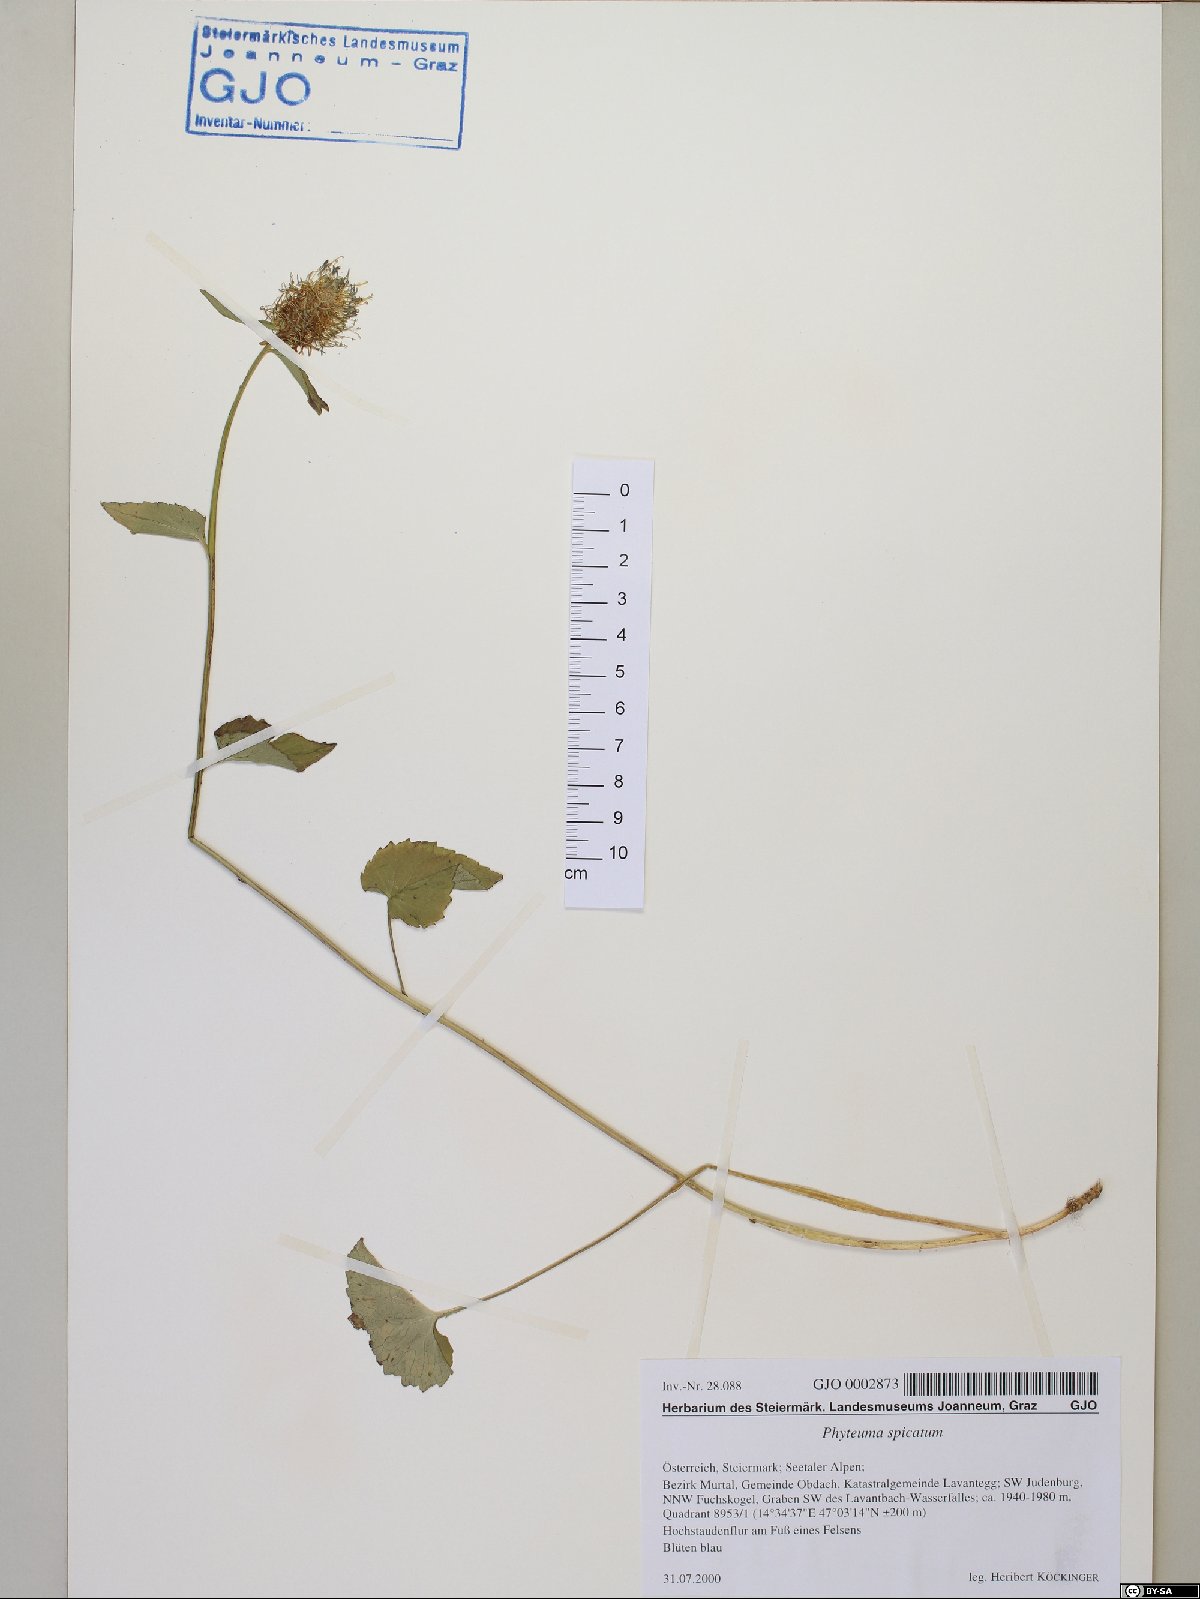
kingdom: Plantae
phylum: Tracheophyta
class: Magnoliopsida
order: Asterales
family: Campanulaceae
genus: Phyteuma
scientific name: Phyteuma spicatum
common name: Spiked rampion
